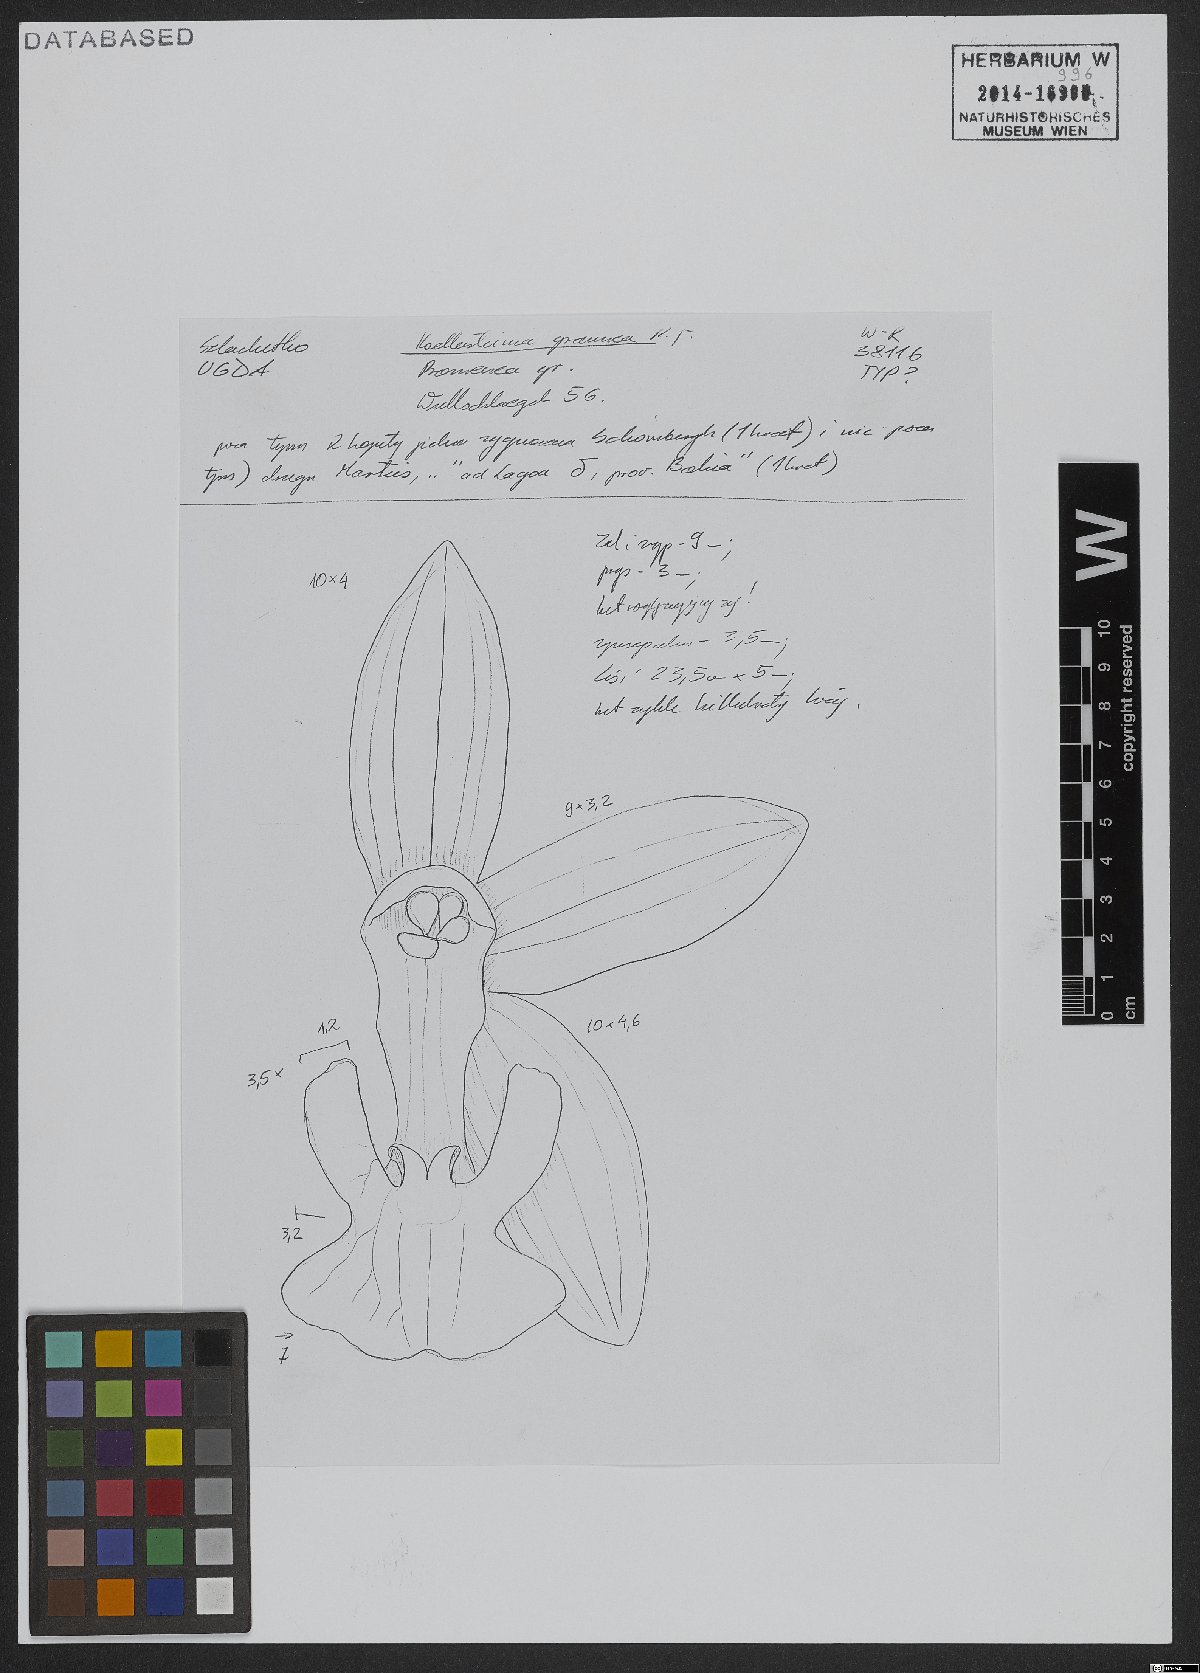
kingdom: Plantae
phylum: Tracheophyta
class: Liliopsida
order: Asparagales
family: Orchidaceae
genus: Koellensteinia
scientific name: Koellensteinia graminea
